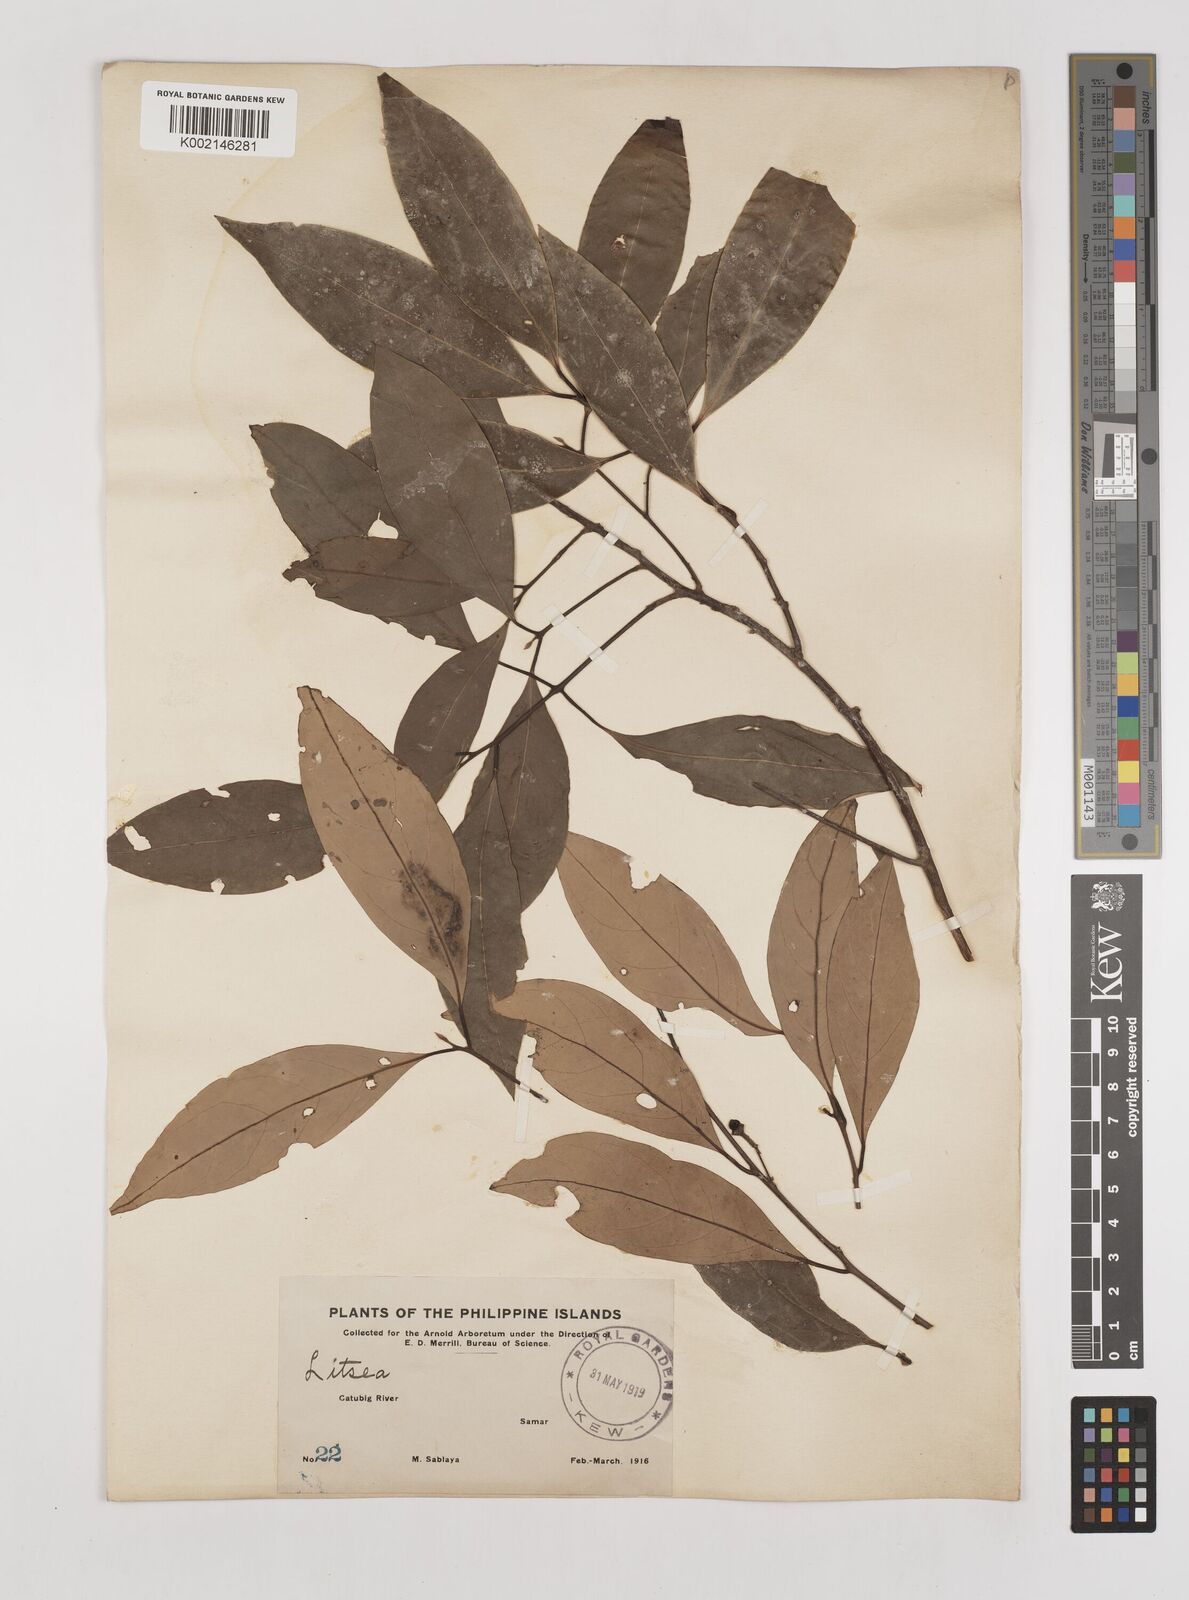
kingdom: Plantae
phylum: Tracheophyta
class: Magnoliopsida
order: Laurales
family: Lauraceae
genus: Litsea
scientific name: Litsea
